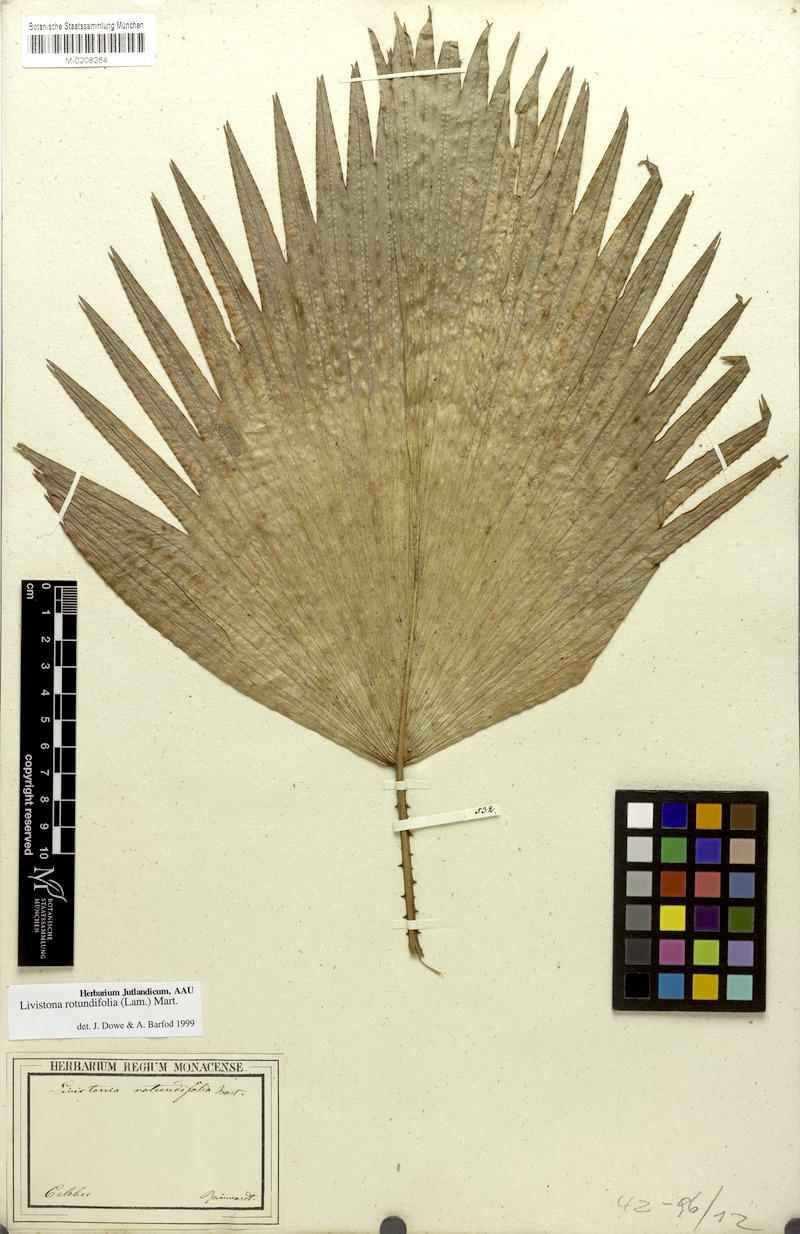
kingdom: Plantae
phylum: Tracheophyta
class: Liliopsida
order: Arecales
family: Arecaceae
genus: Saribus
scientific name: Saribus rotundifolius
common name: Palm
